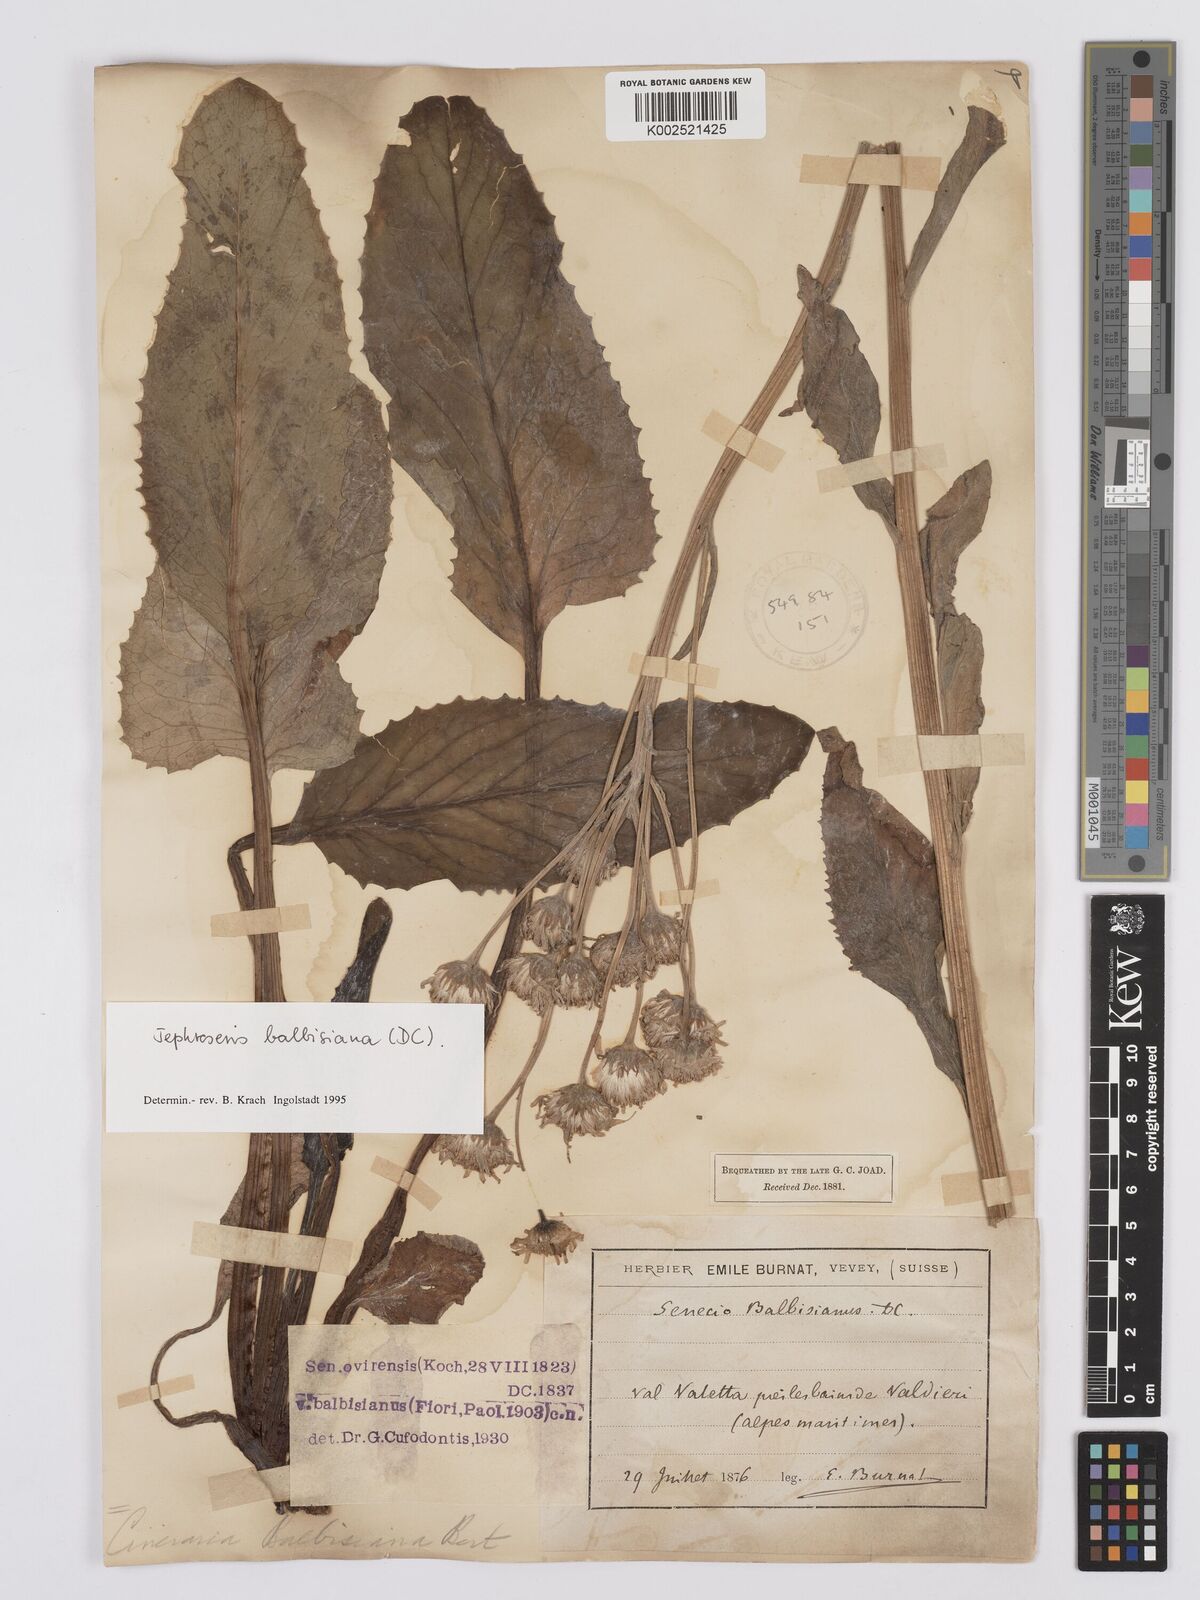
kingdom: Plantae
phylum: Tracheophyta
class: Magnoliopsida
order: Asterales
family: Asteraceae
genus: Tephroseris
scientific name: Tephroseris balbisiana
